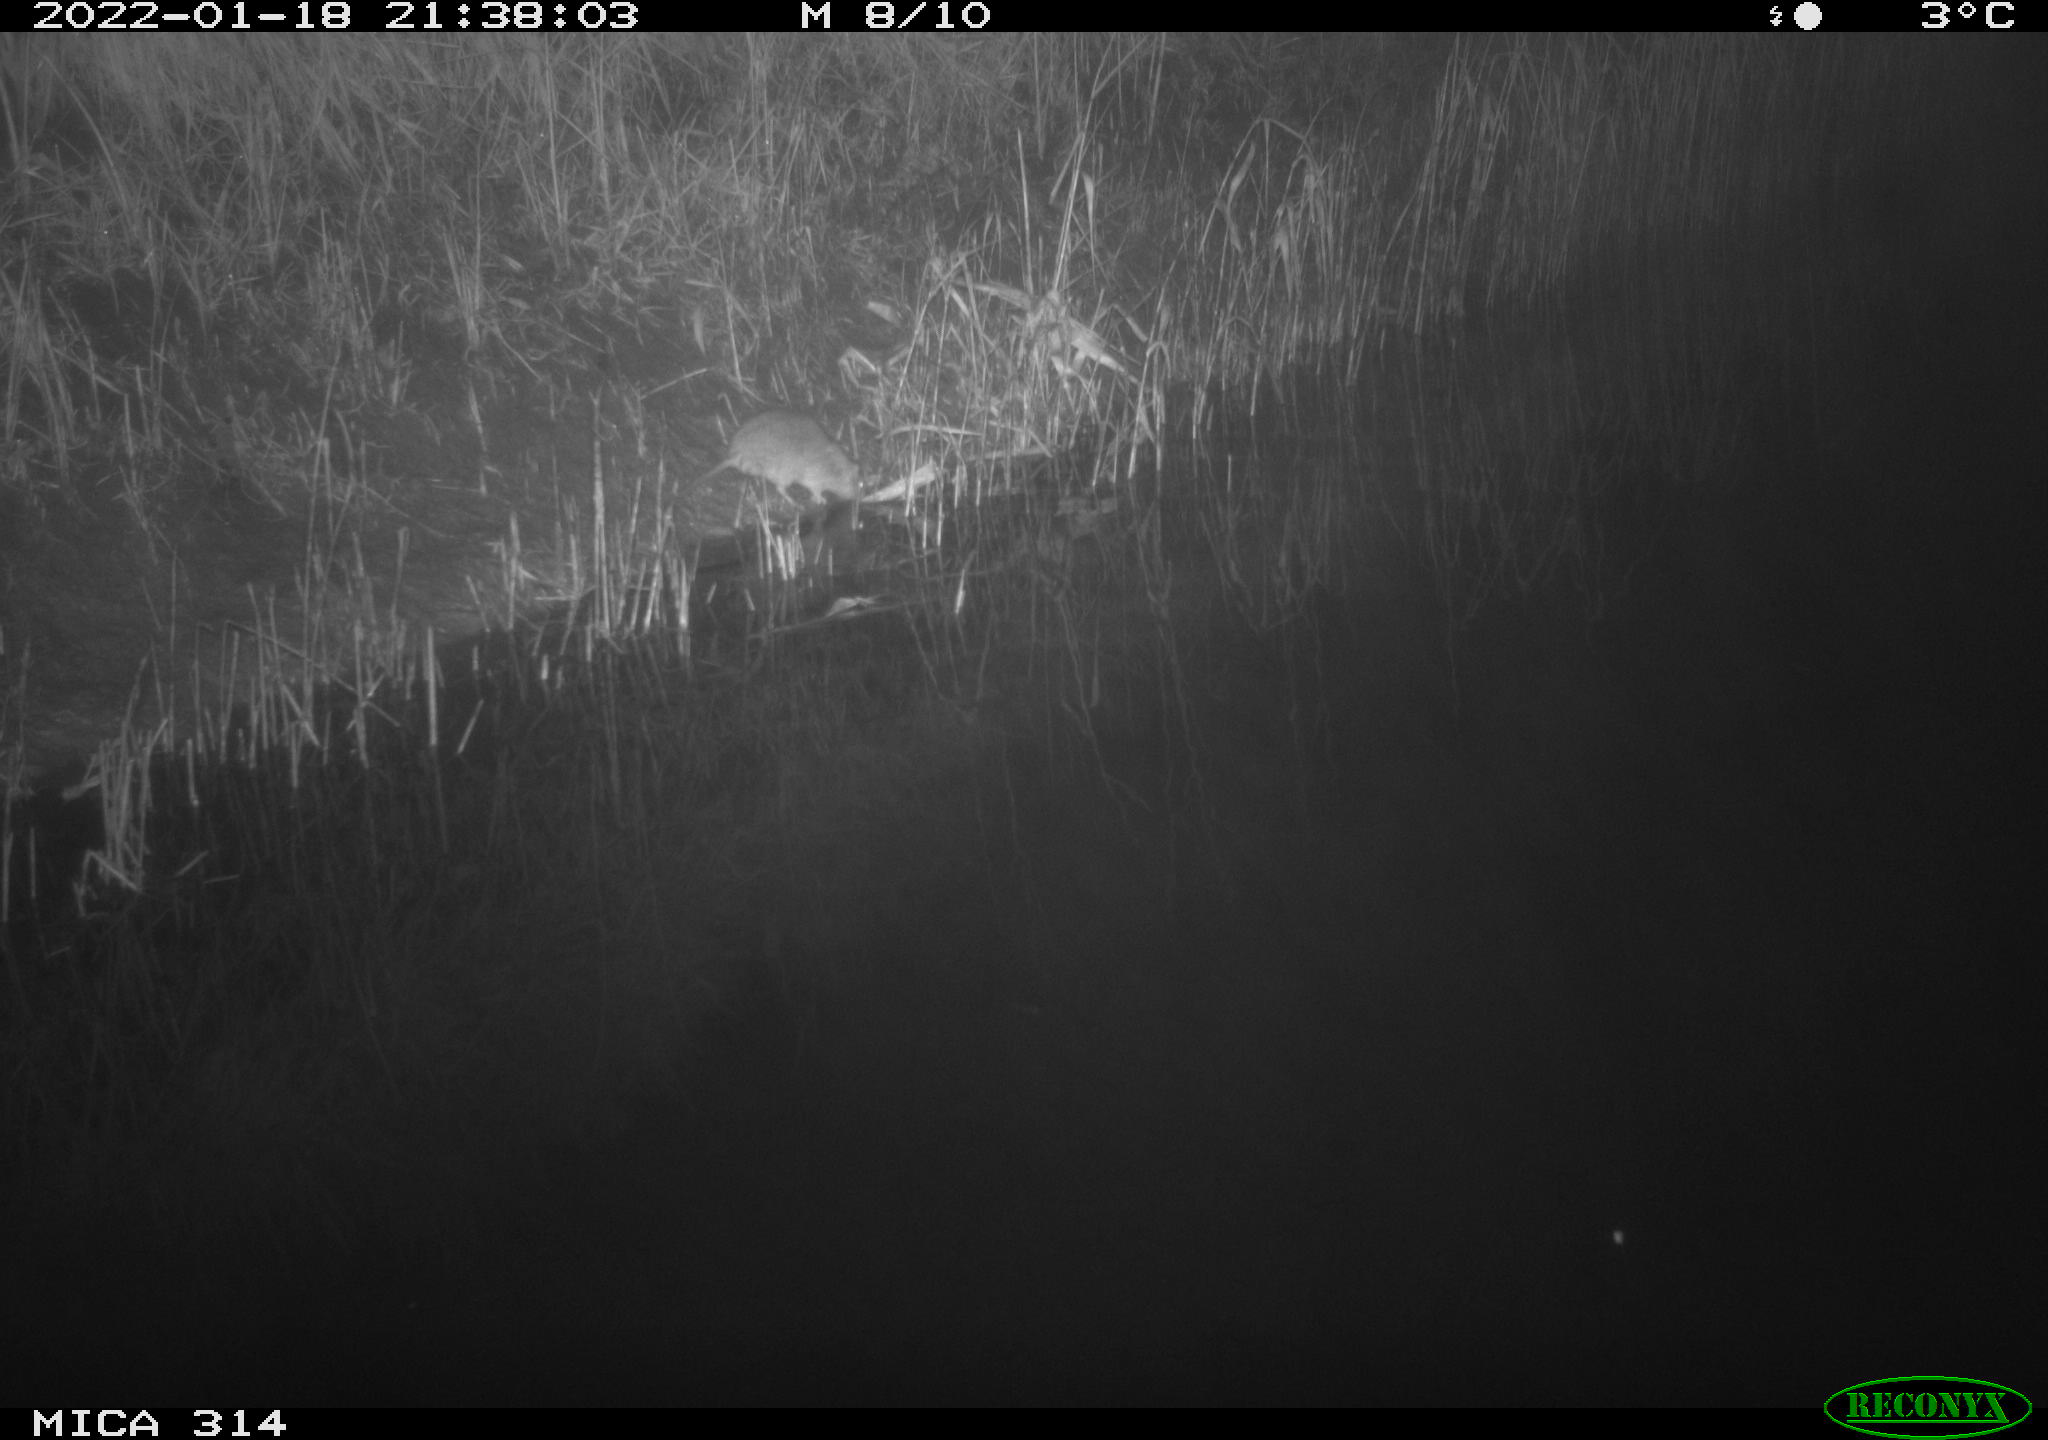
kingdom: Animalia
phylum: Chordata
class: Mammalia
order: Rodentia
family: Muridae
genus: Rattus
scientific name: Rattus norvegicus
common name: Brown rat
